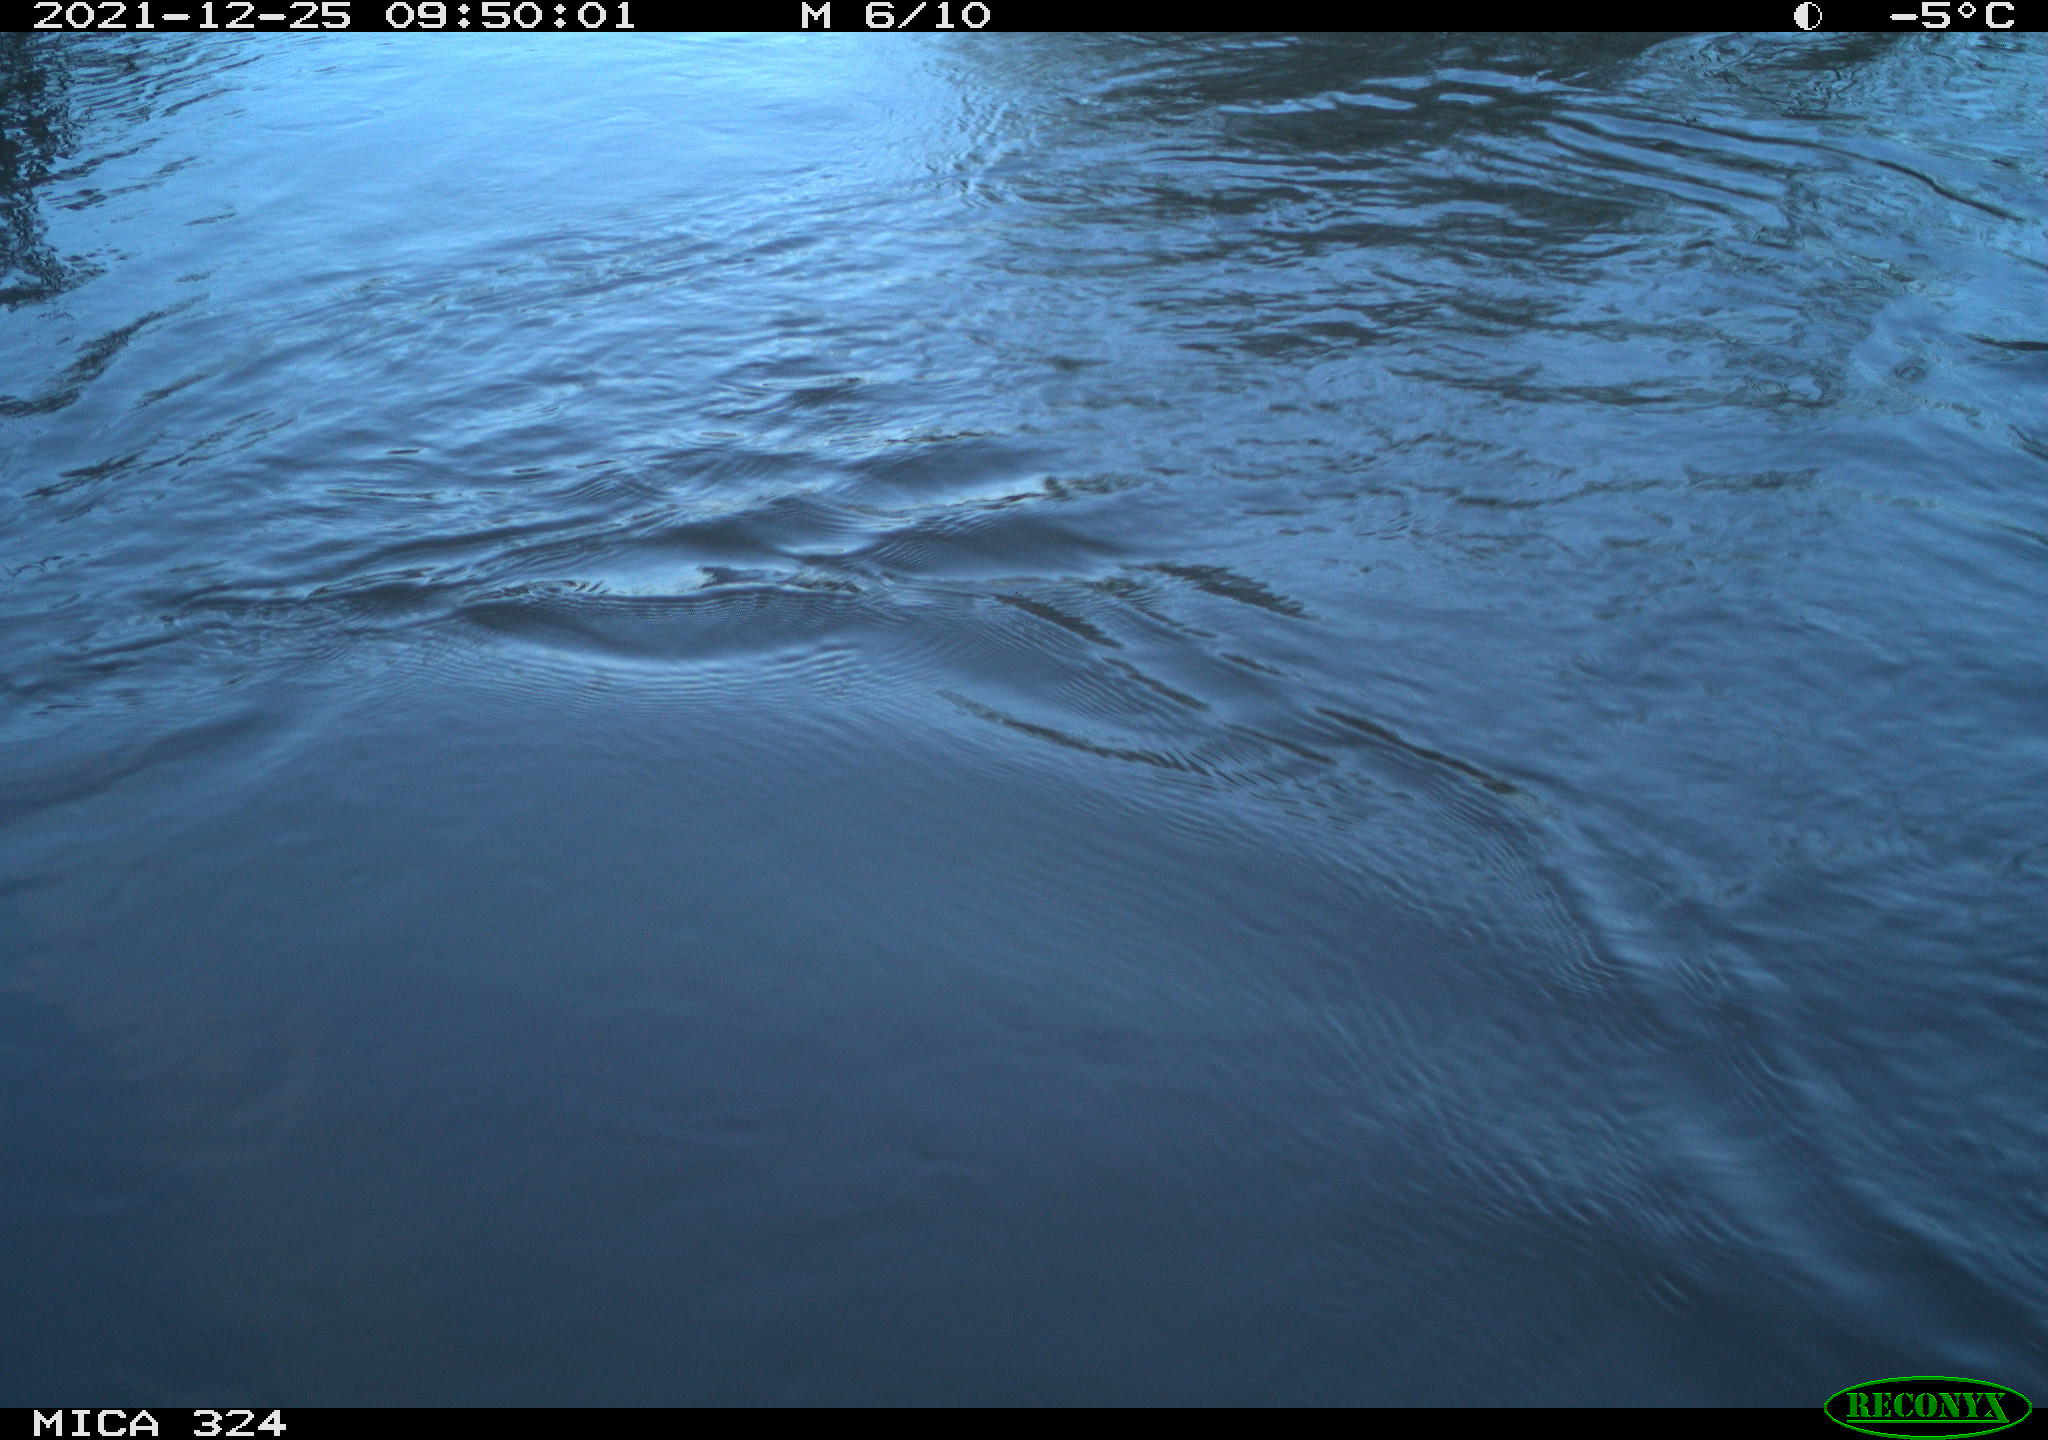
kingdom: Animalia
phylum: Chordata
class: Mammalia
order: Rodentia
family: Cricetidae
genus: Ondatra
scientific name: Ondatra zibethicus
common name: Muskrat
